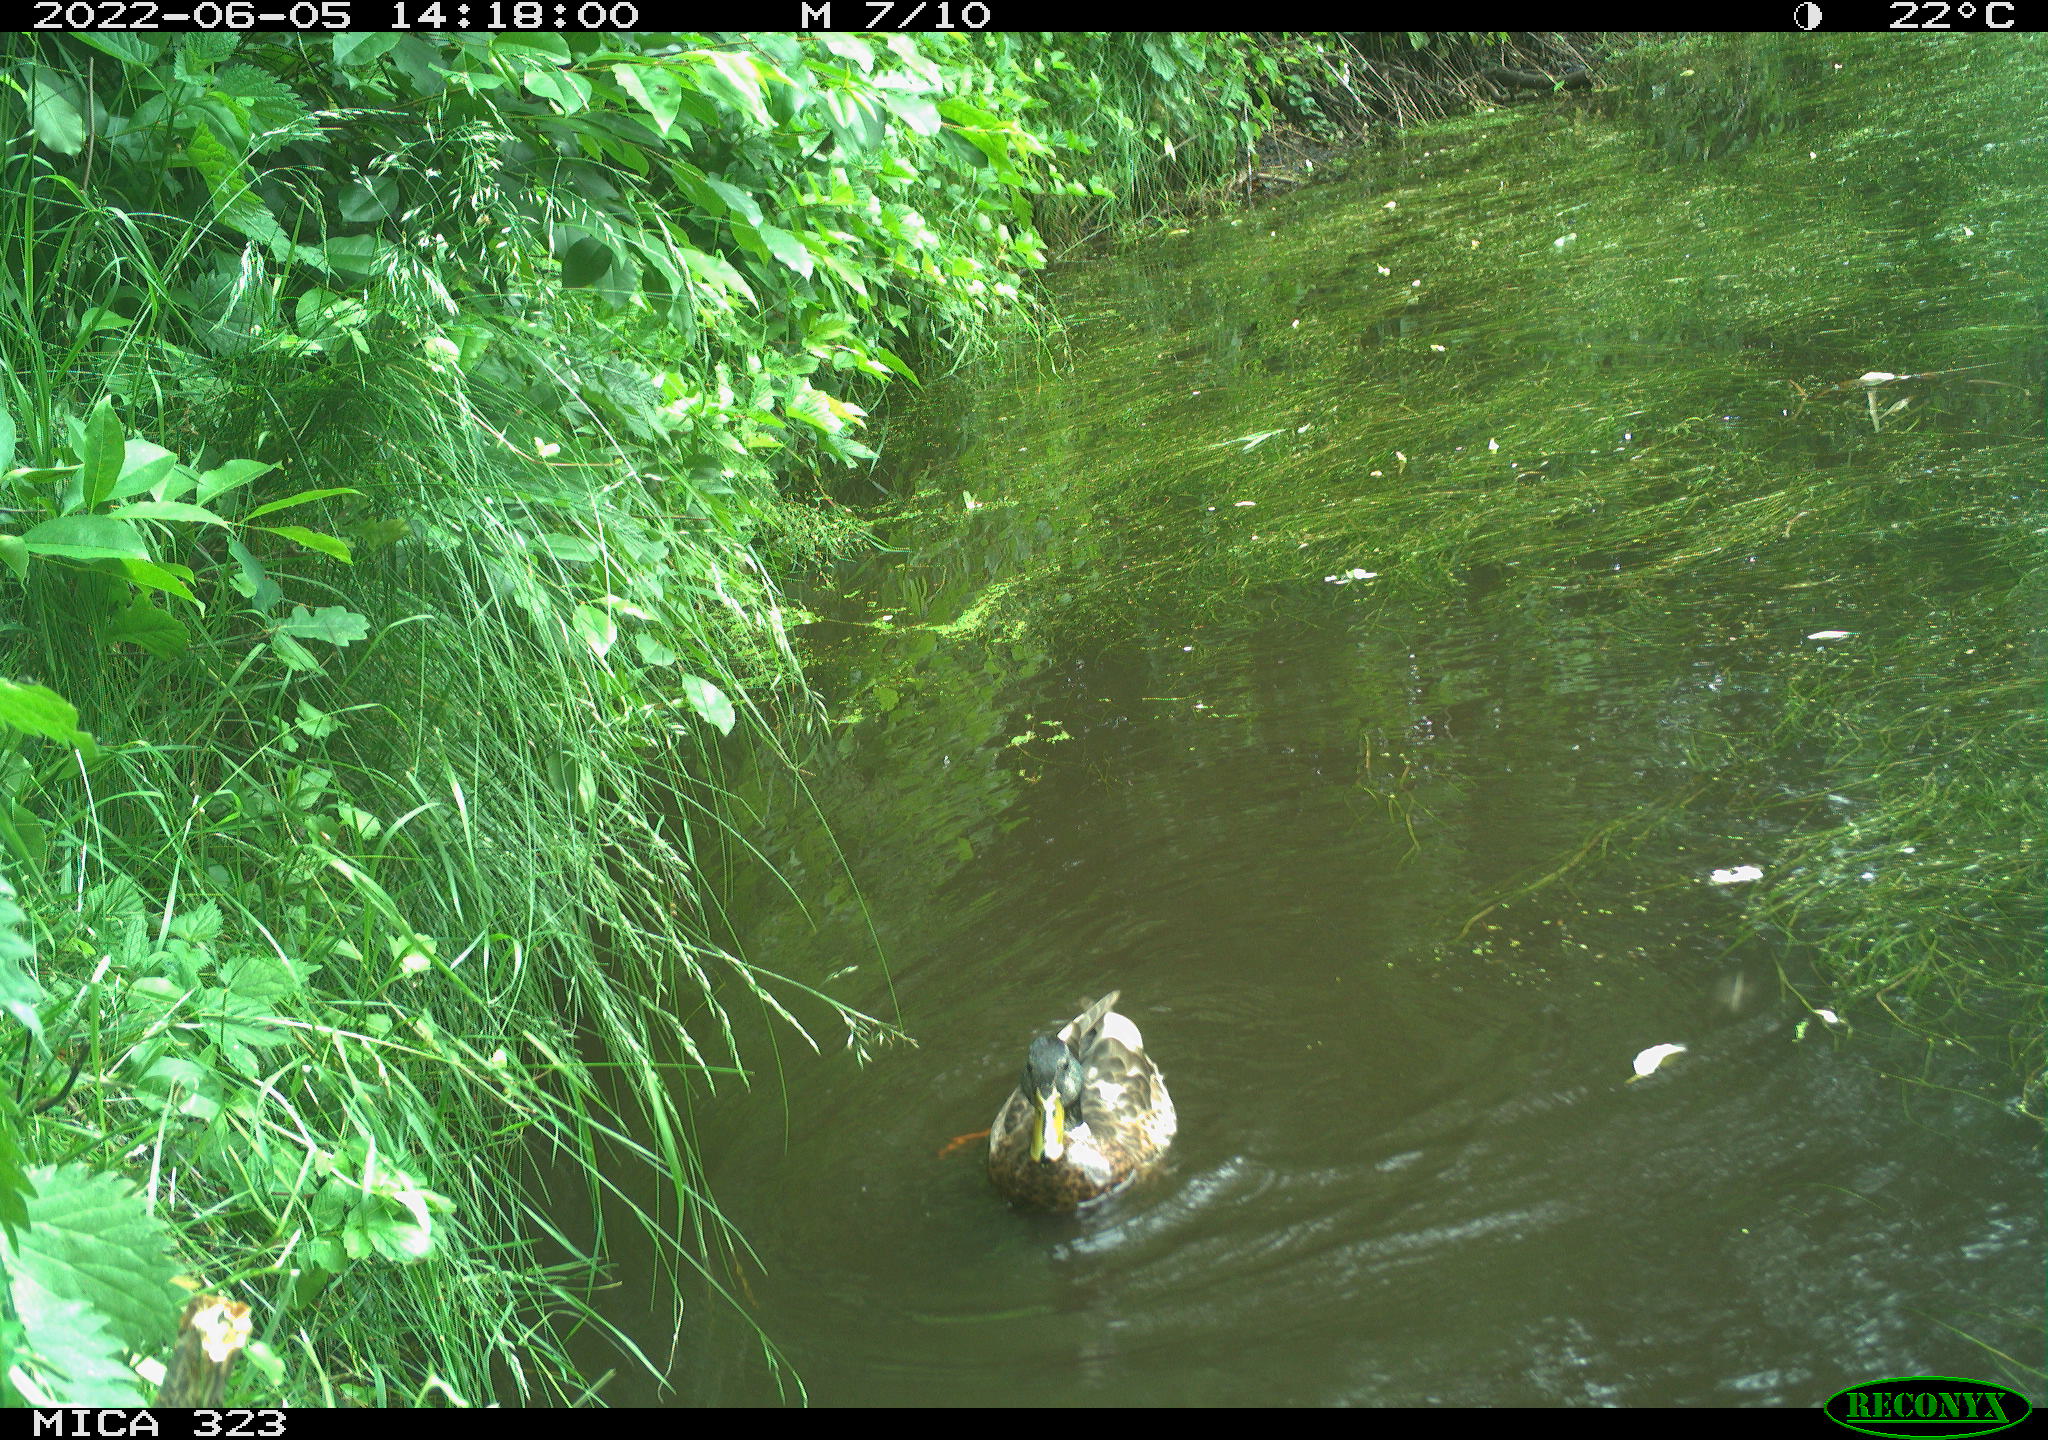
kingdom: Animalia
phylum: Chordata
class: Aves
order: Anseriformes
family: Anatidae
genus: Anas
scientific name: Anas platyrhynchos
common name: Mallard
